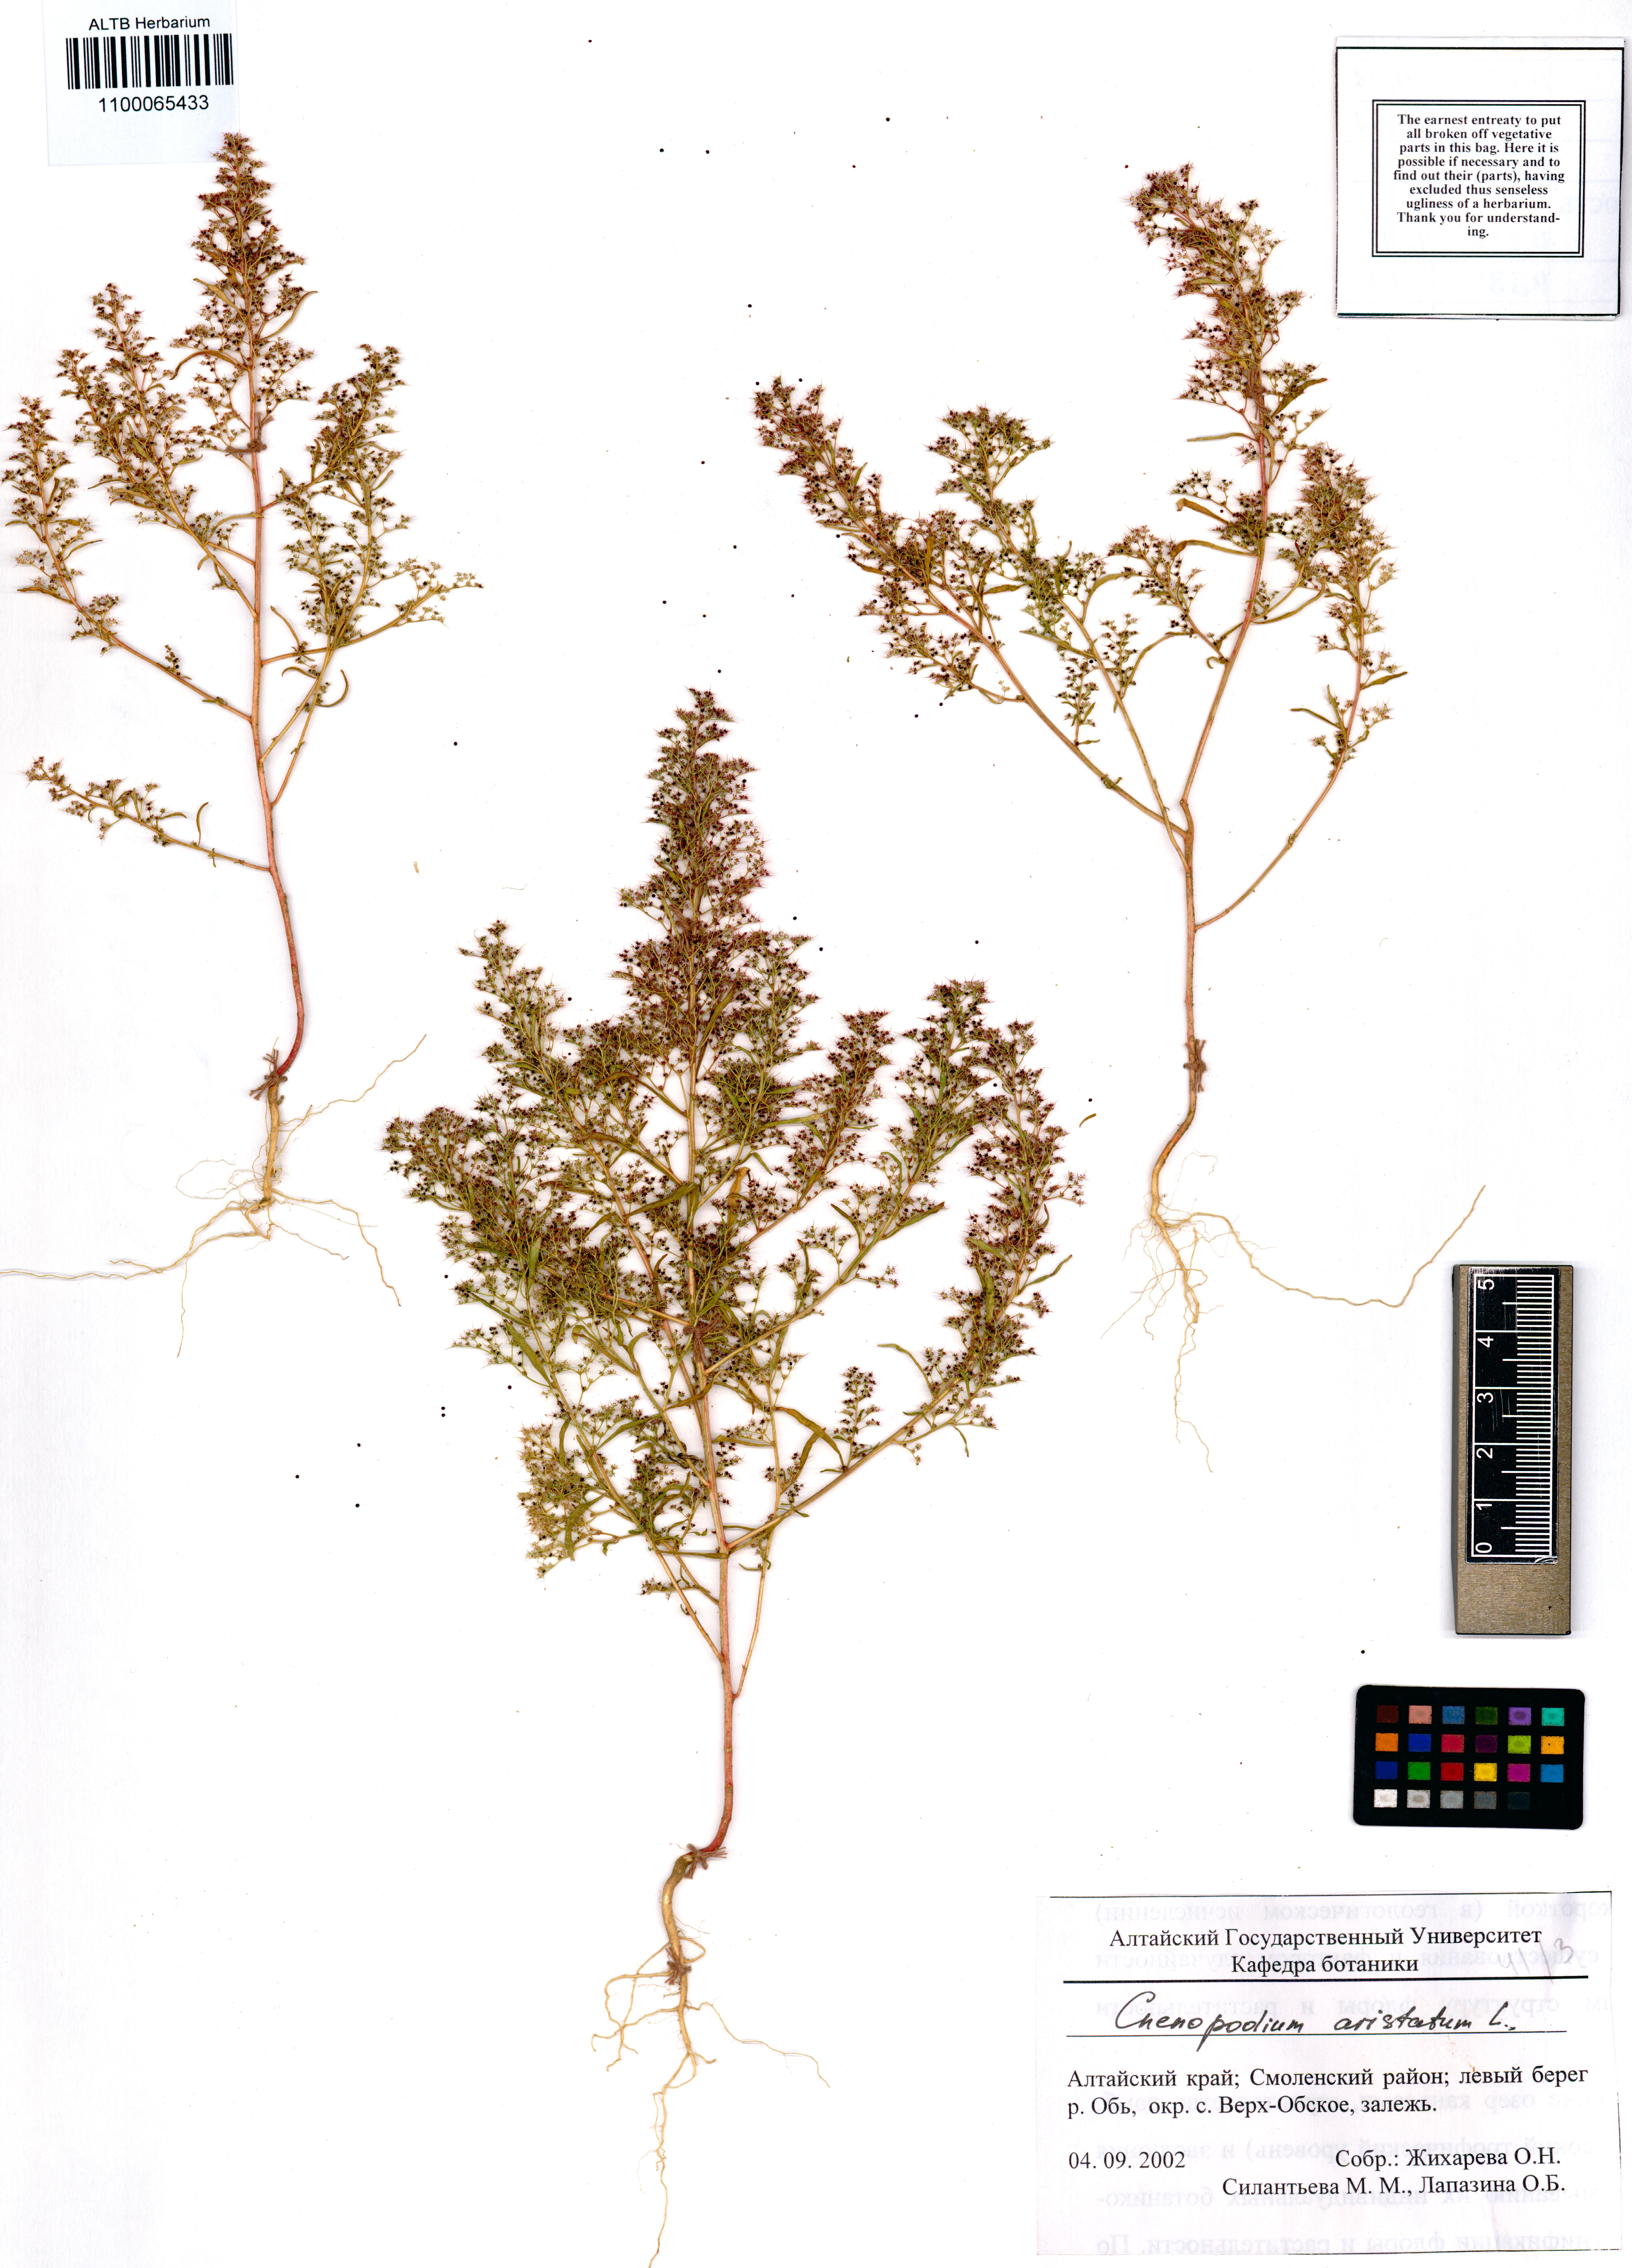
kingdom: Plantae
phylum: Tracheophyta
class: Magnoliopsida
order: Caryophyllales
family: Amaranthaceae
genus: Teloxys
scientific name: Teloxys aristata
